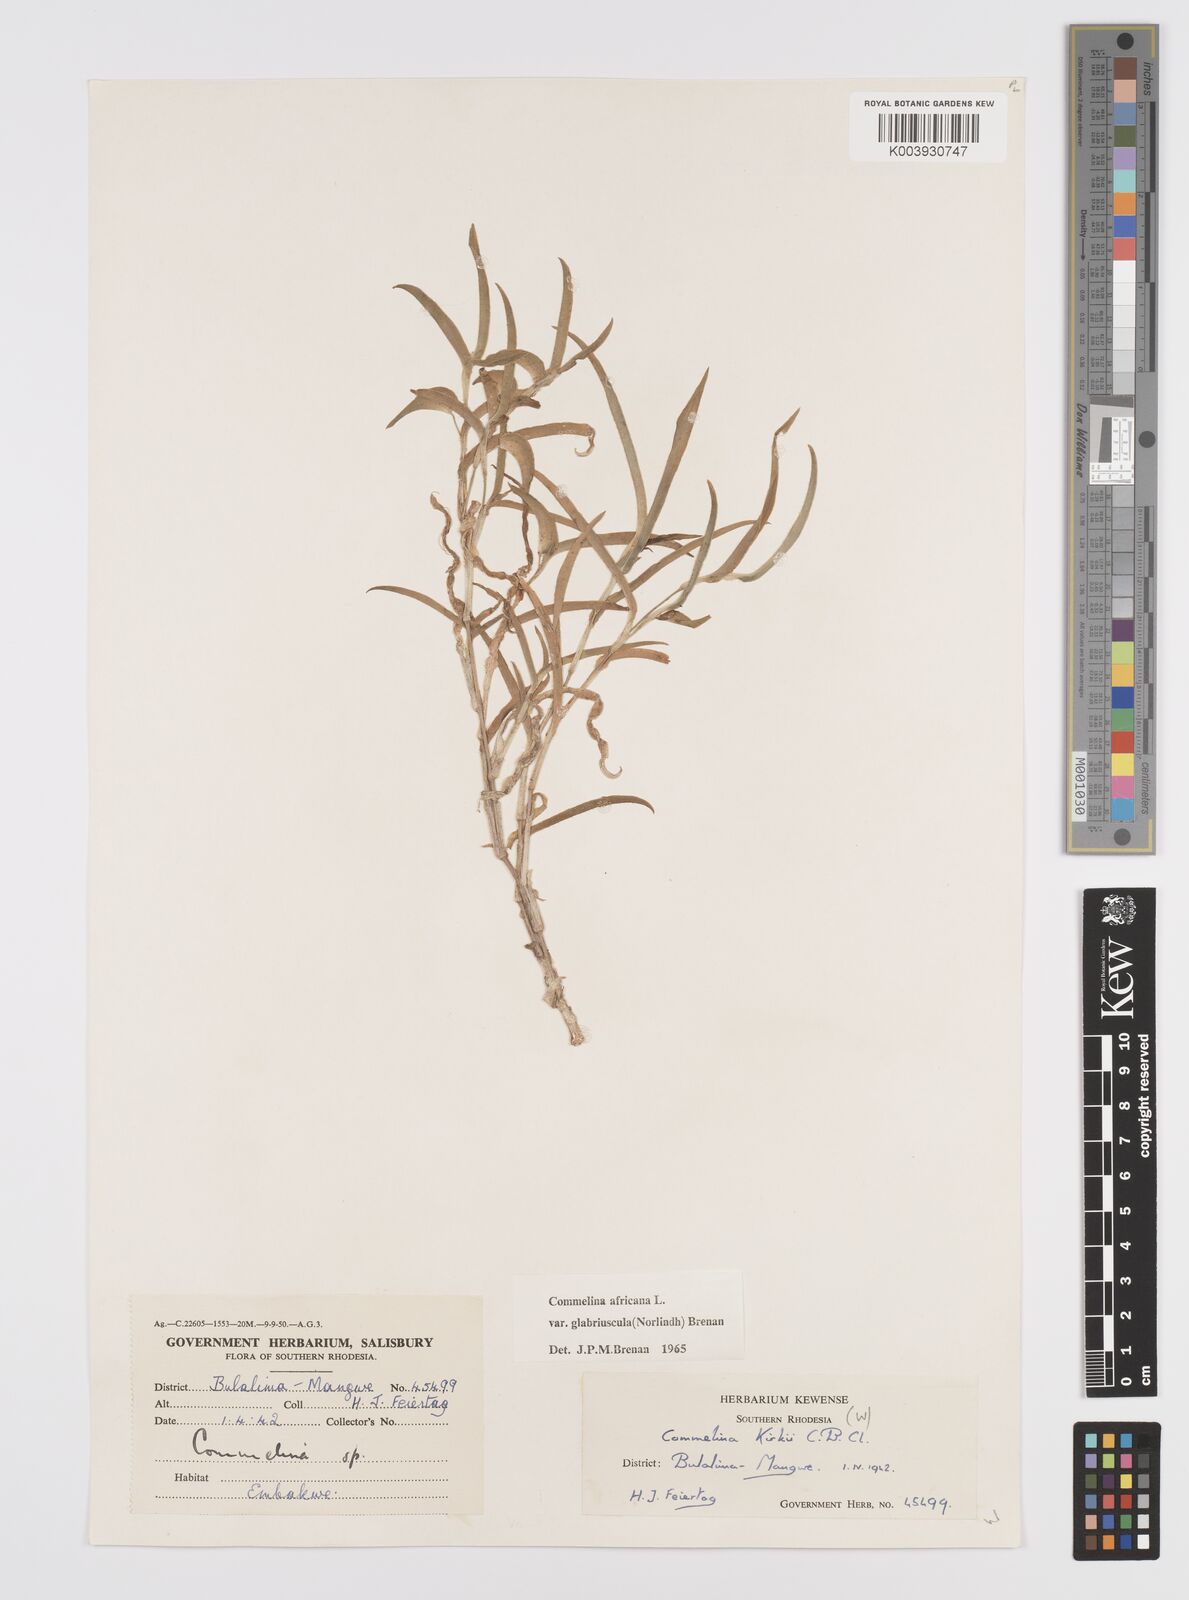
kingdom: Plantae
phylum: Tracheophyta
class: Liliopsida
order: Commelinales
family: Commelinaceae
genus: Commelina
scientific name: Commelina africana
